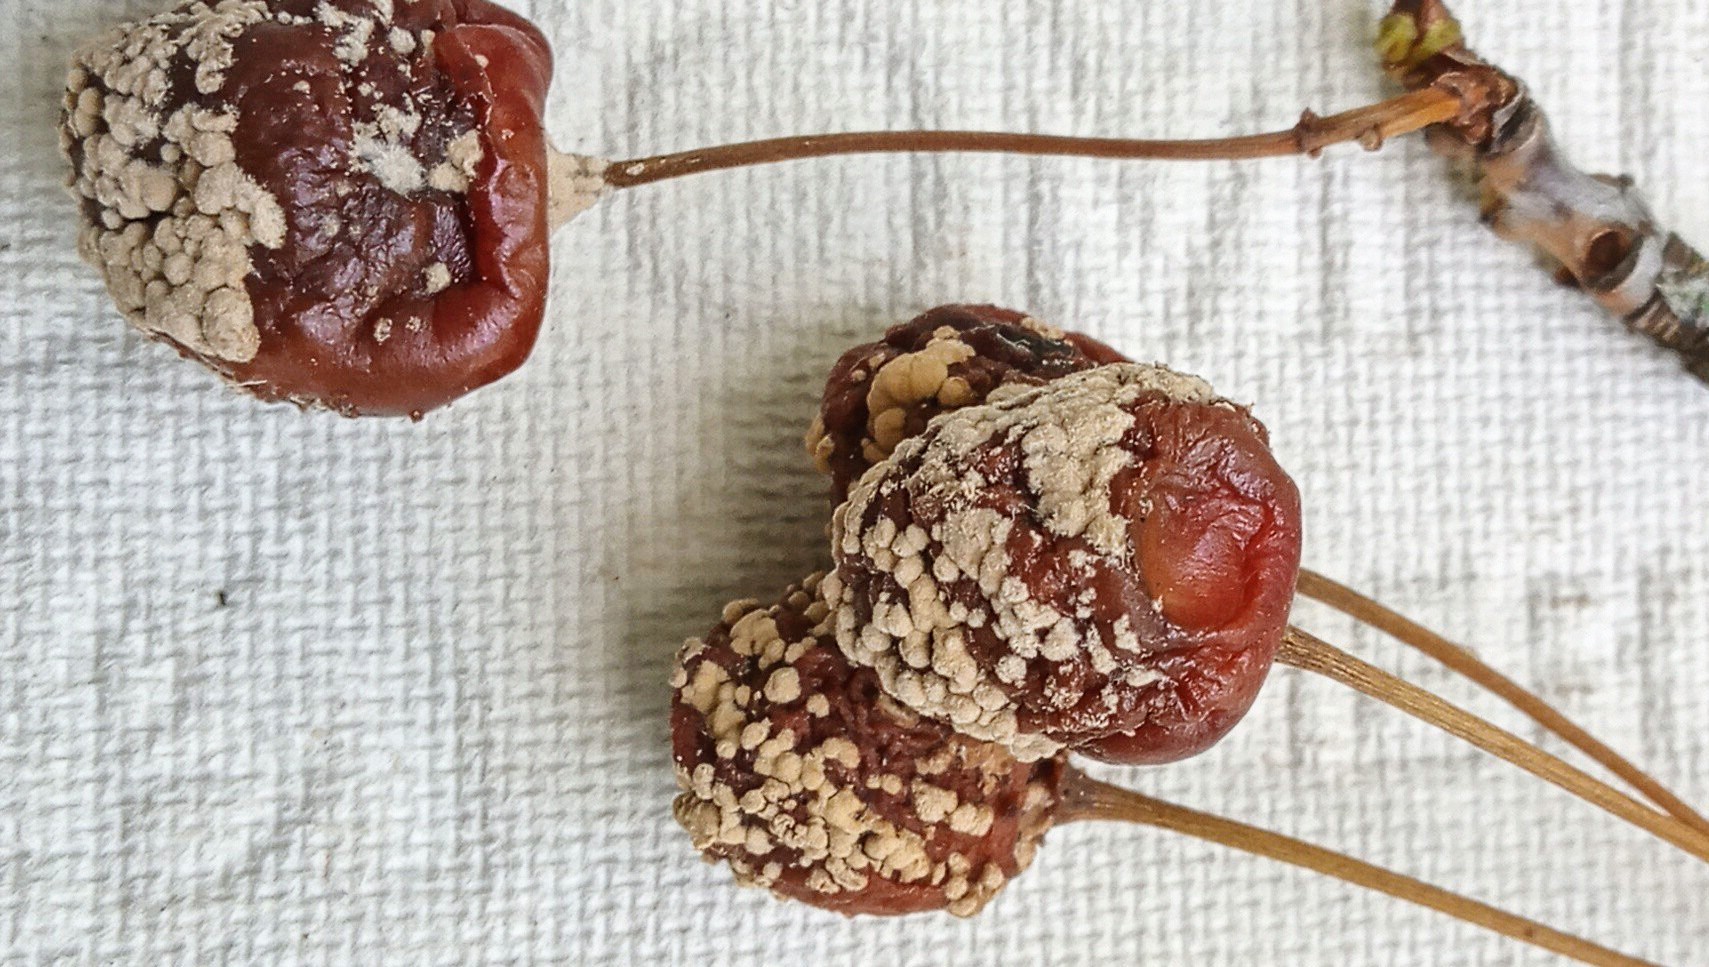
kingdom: Fungi
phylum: Ascomycota
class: Leotiomycetes
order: Helotiales
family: Sclerotiniaceae
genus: Monilinia
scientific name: Monilinia laxa
